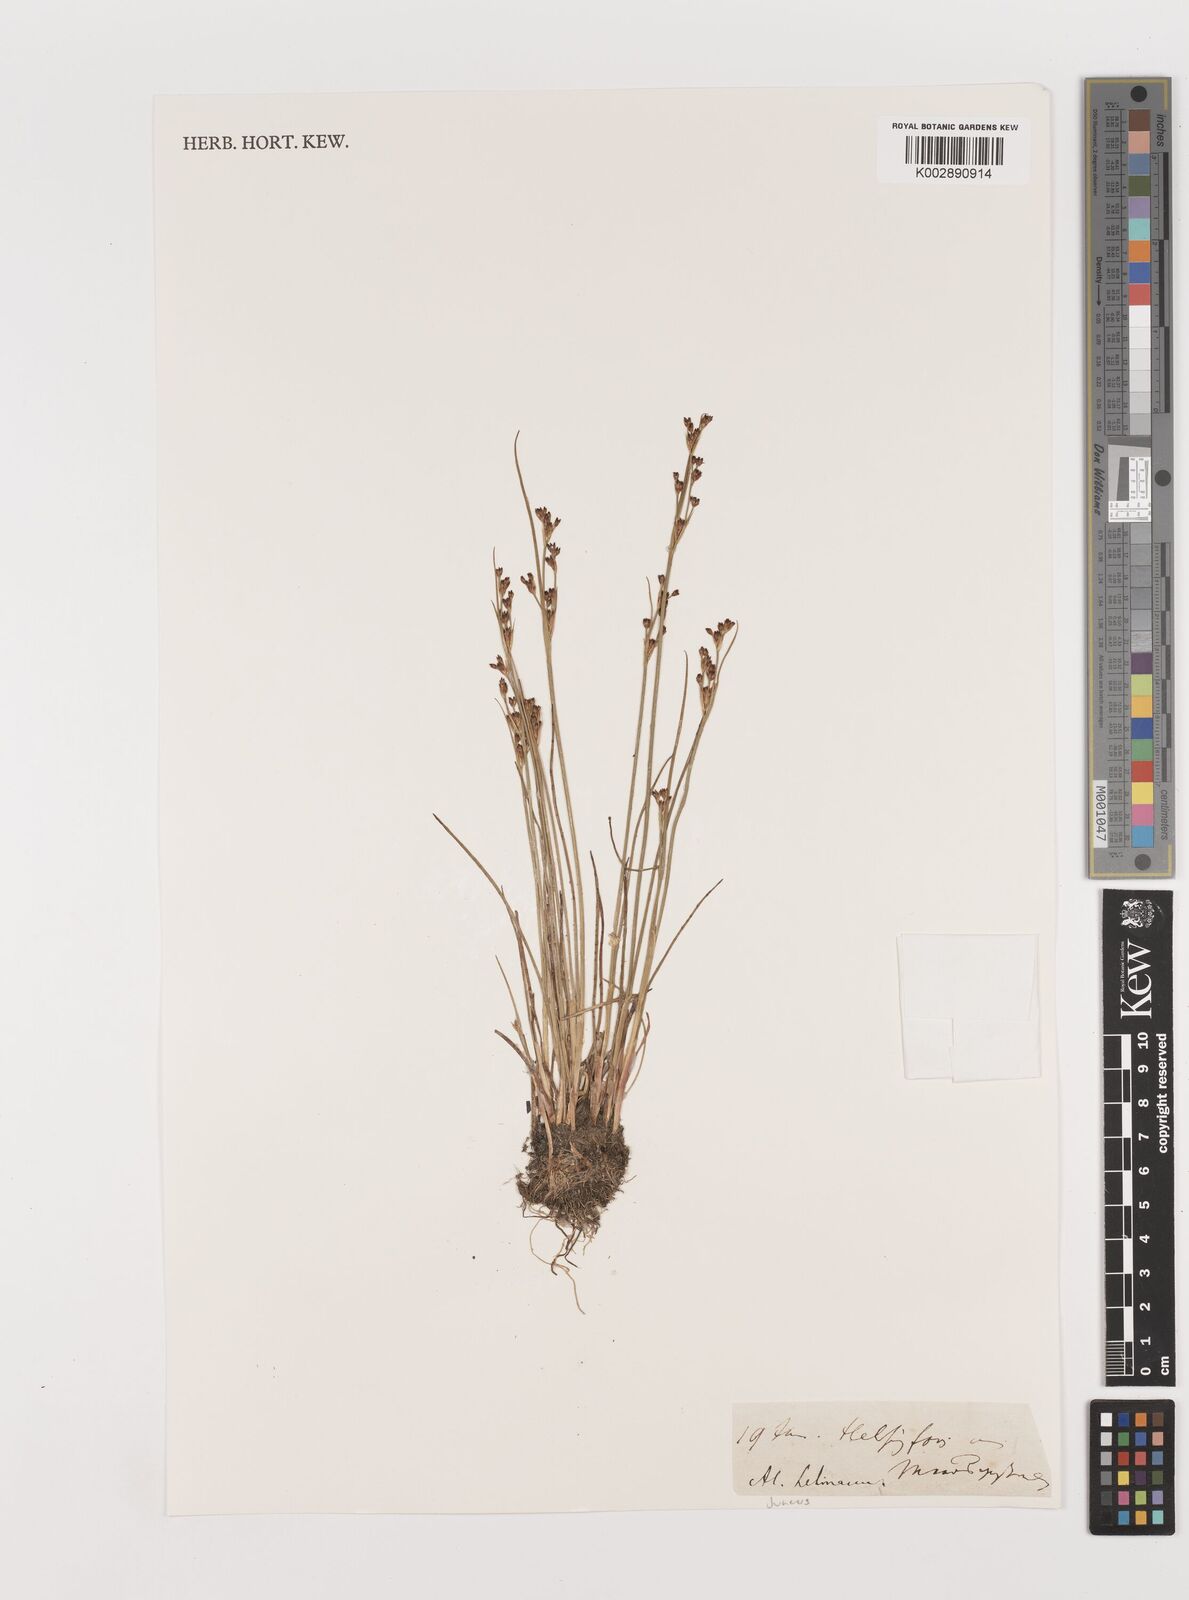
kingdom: Plantae
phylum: Tracheophyta
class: Liliopsida
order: Poales
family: Juncaceae
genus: Juncus
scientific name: Juncus
